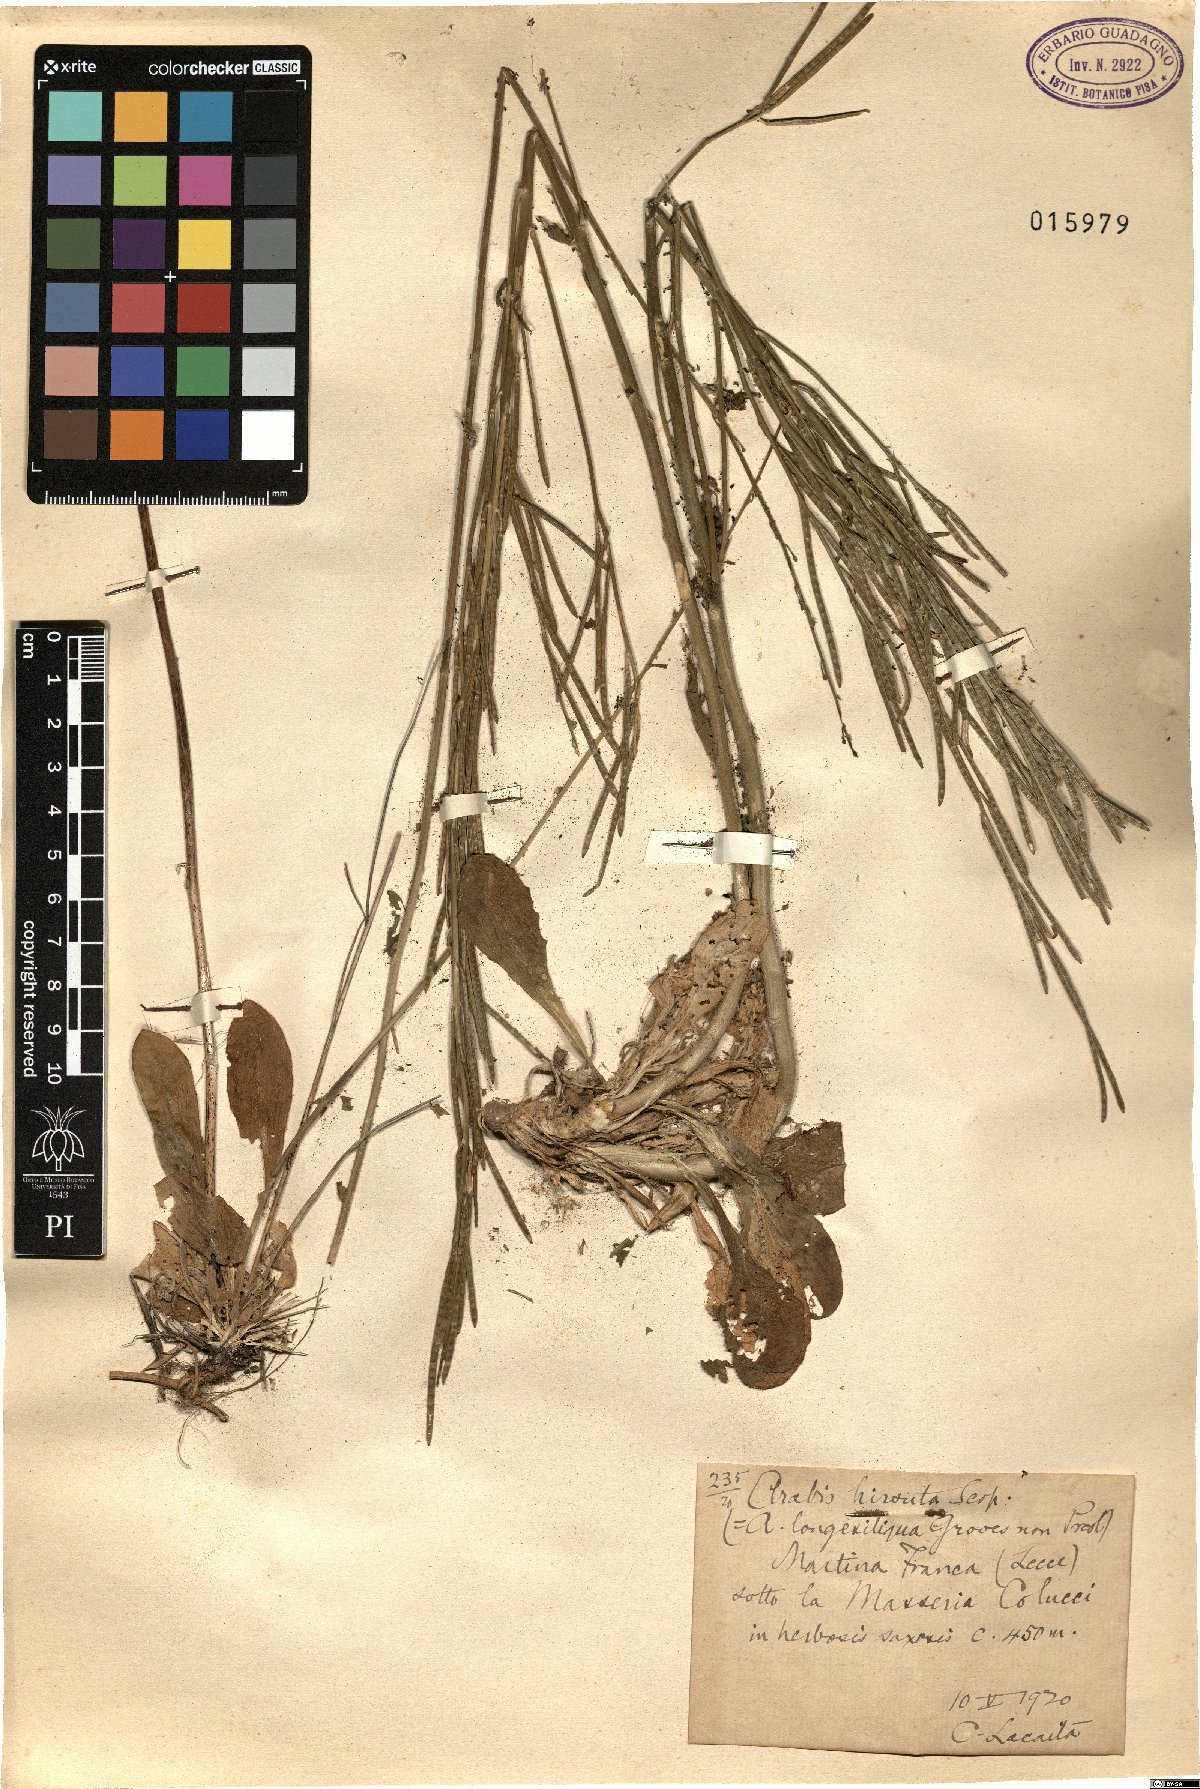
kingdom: Plantae
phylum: Tracheophyta
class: Magnoliopsida
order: Brassicales
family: Brassicaceae
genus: Arabis
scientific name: Arabis hirsuta
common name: Hairy rock-cress
